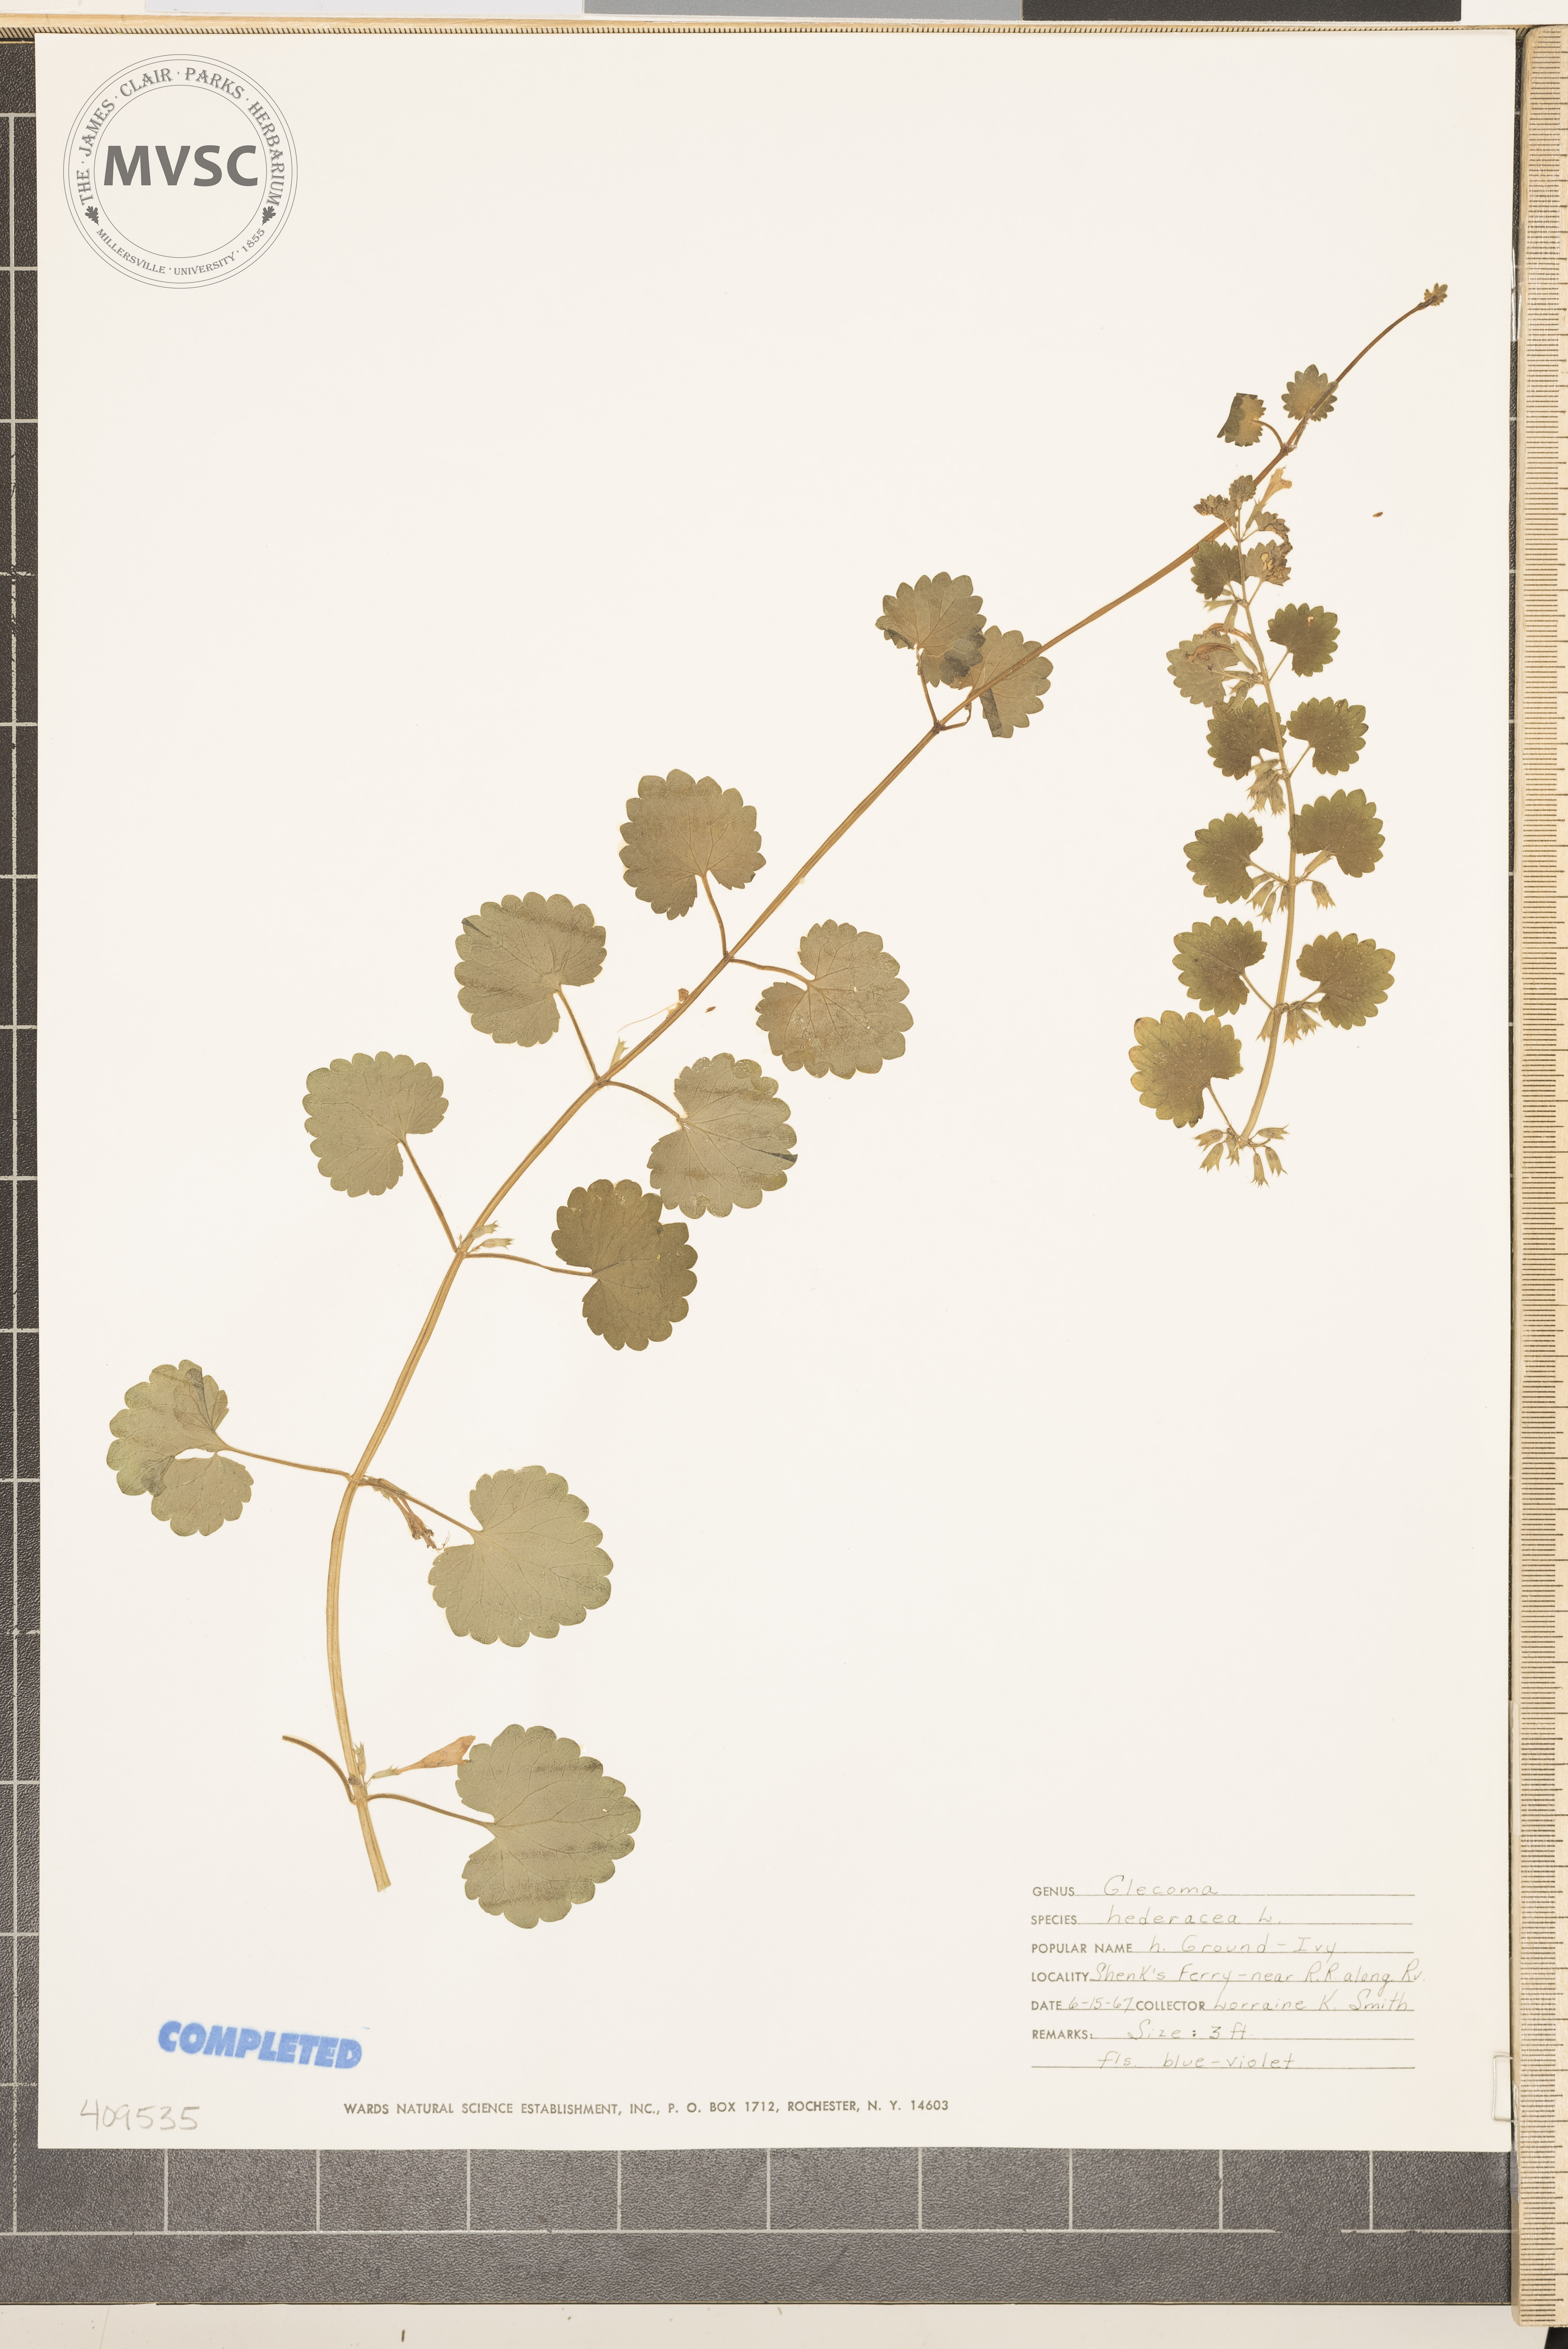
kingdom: Plantae
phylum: Tracheophyta
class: Magnoliopsida
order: Lamiales
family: Lamiaceae
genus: Glechoma
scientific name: Glechoma hederacea
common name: ground ivy
